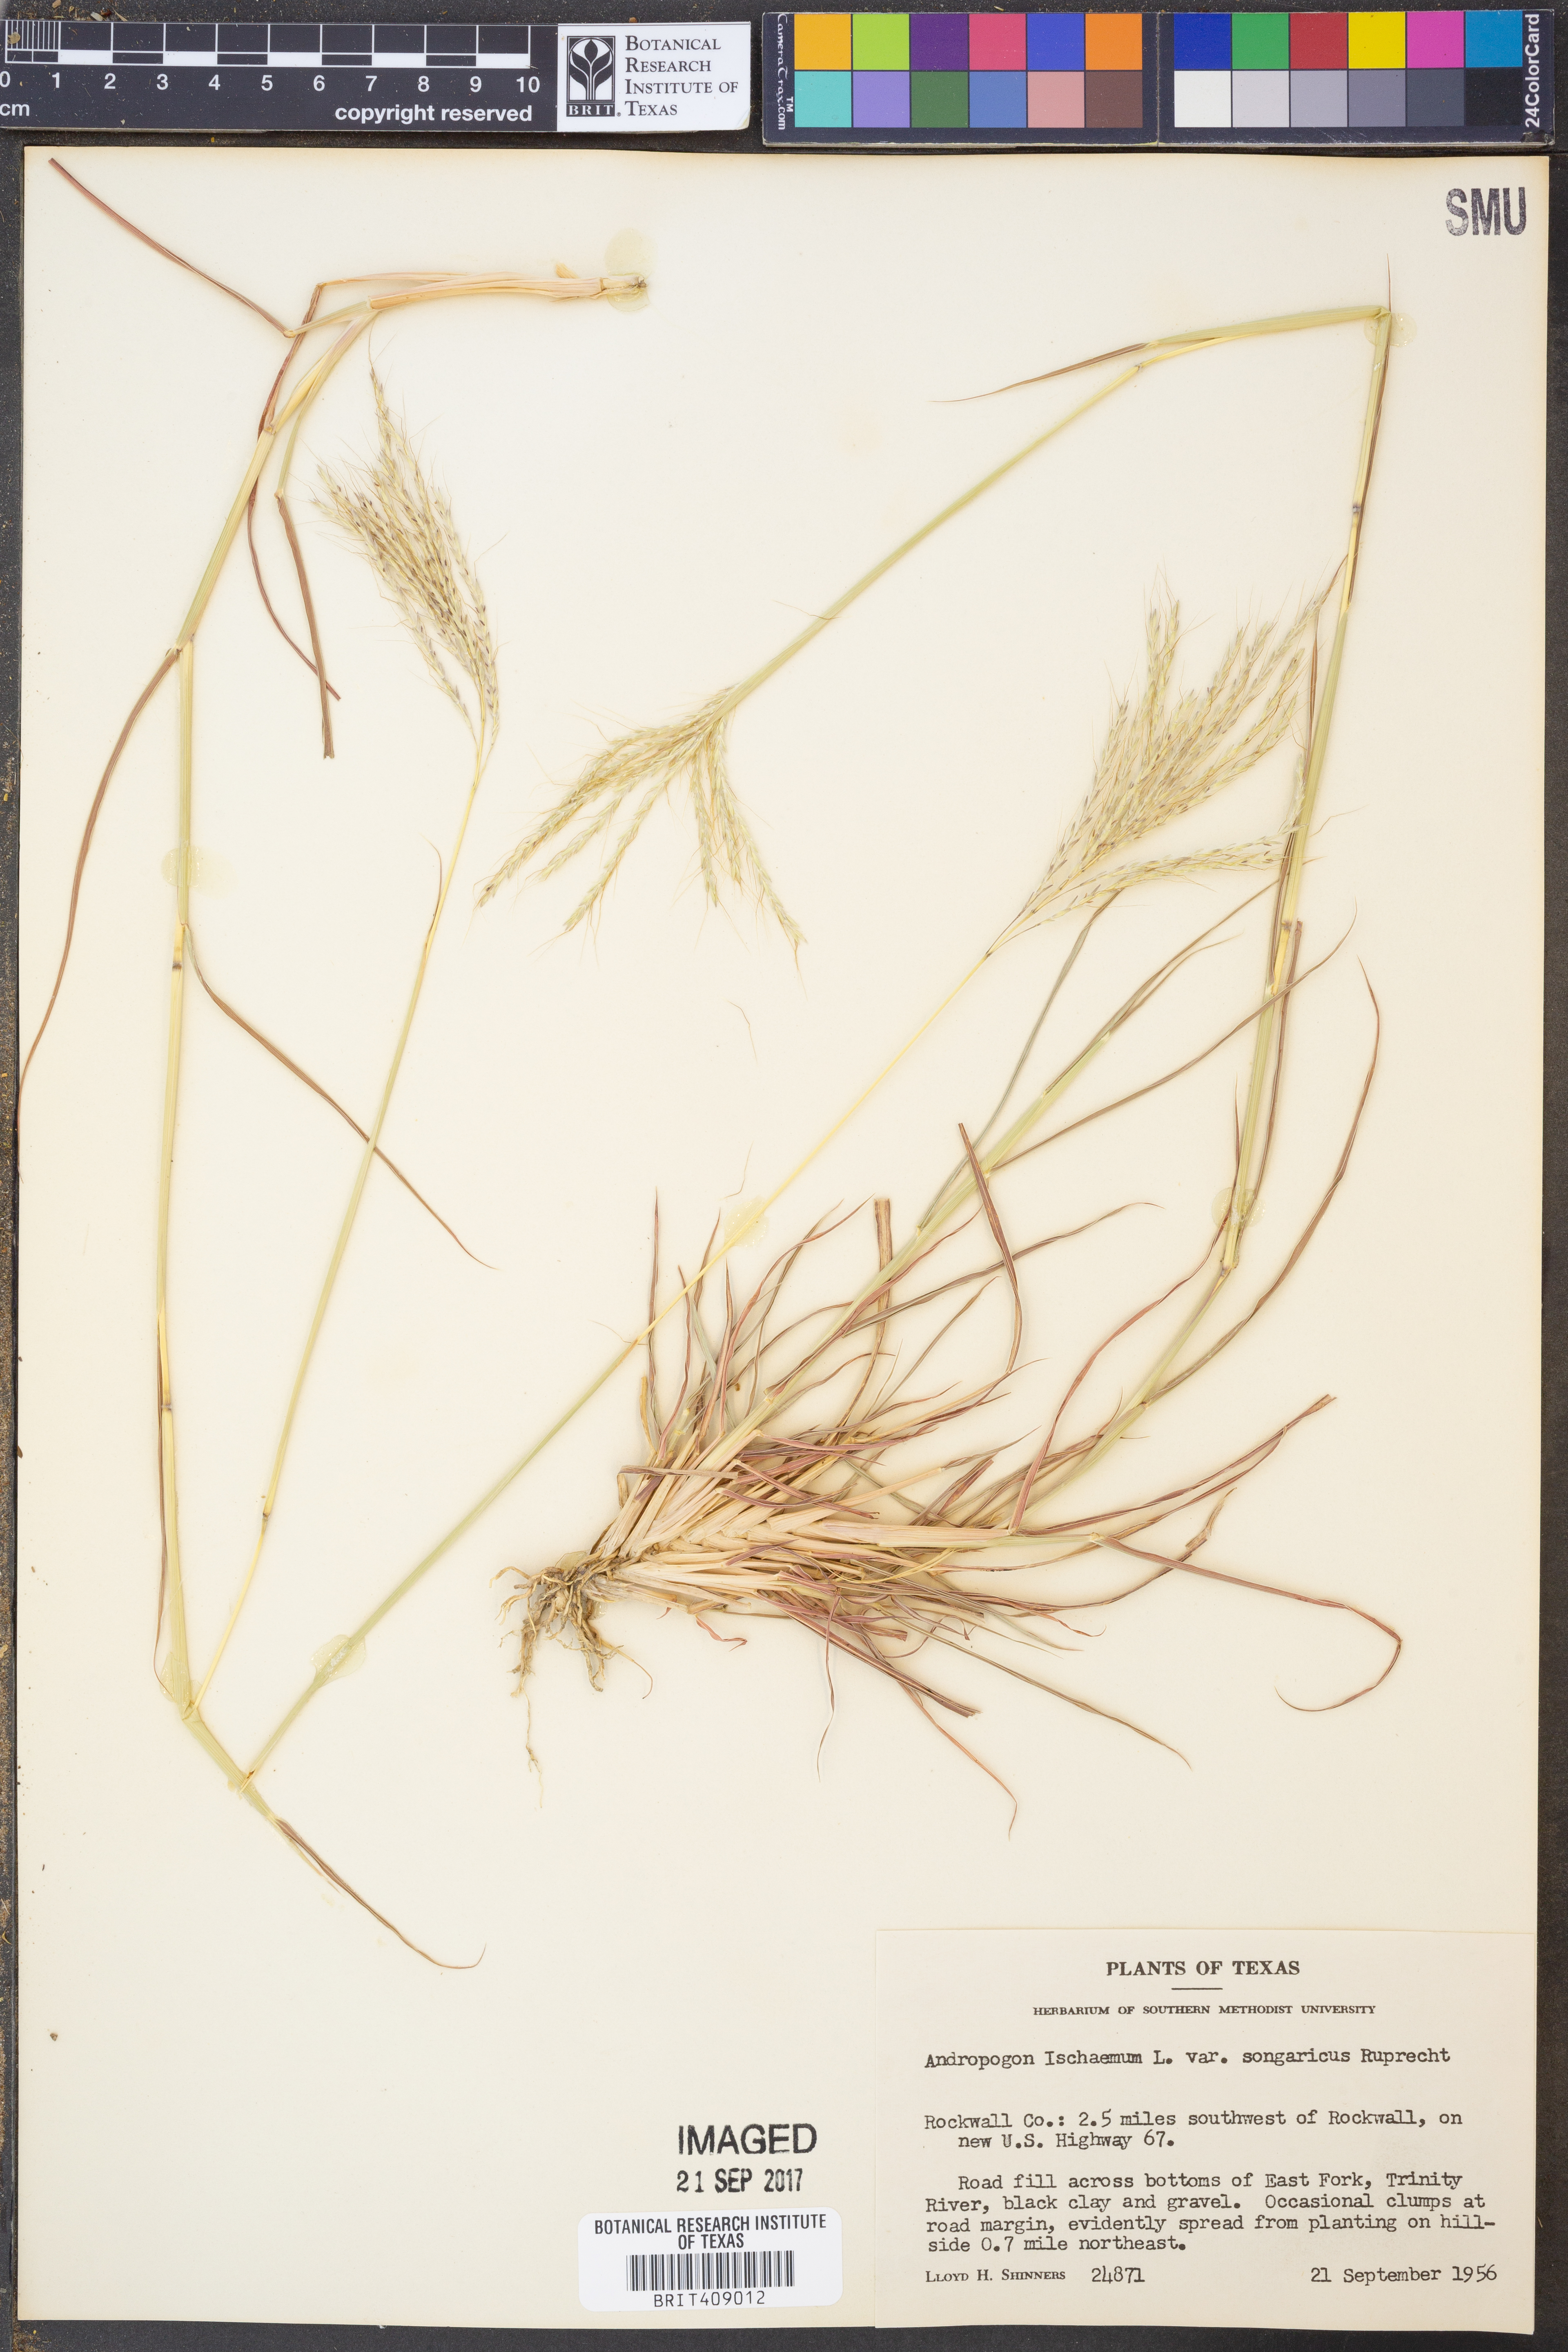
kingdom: Plantae
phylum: Tracheophyta
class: Liliopsida
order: Poales
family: Poaceae
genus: Bothriochloa
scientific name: Bothriochloa ischaemum
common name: Yellow bluestem
